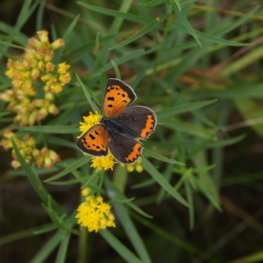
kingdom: Animalia
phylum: Arthropoda
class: Insecta
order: Lepidoptera
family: Lycaenidae
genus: Lycaena
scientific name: Lycaena phlaeas
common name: American Copper
